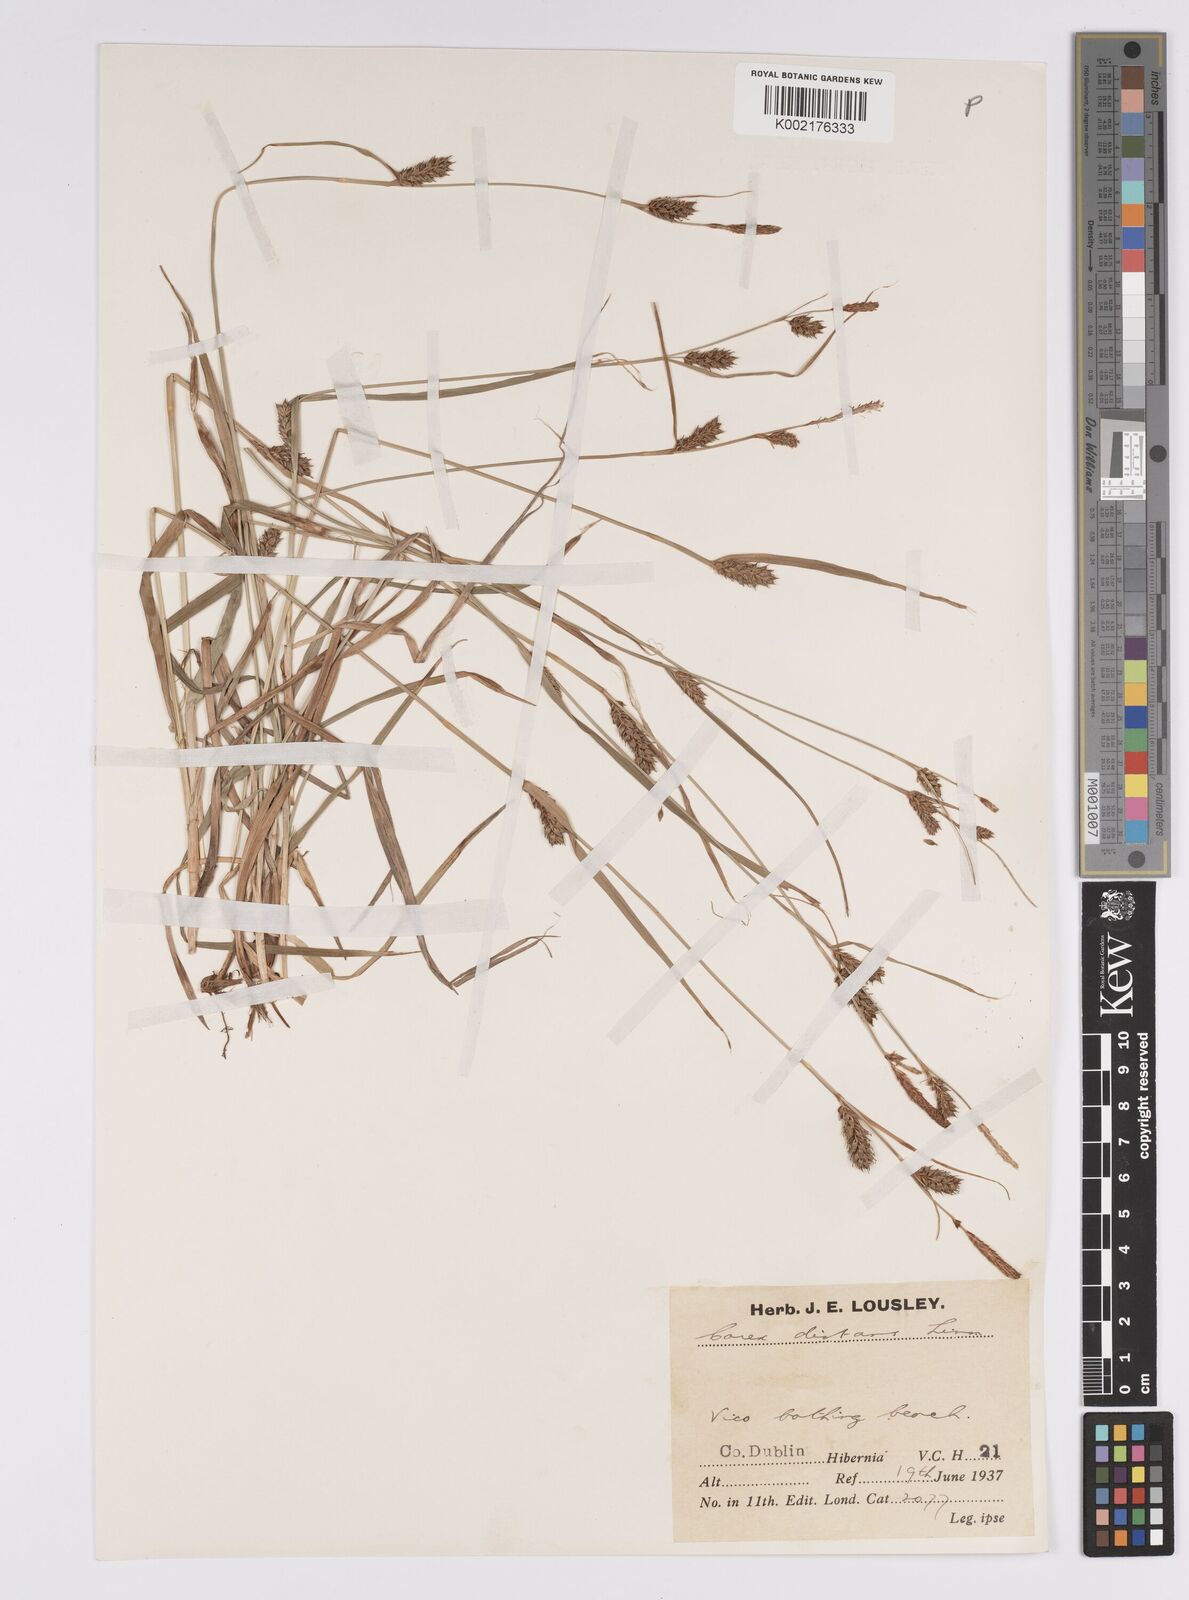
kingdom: Plantae
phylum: Tracheophyta
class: Liliopsida
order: Poales
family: Cyperaceae
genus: Carex
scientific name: Carex distans
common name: Distant sedge
